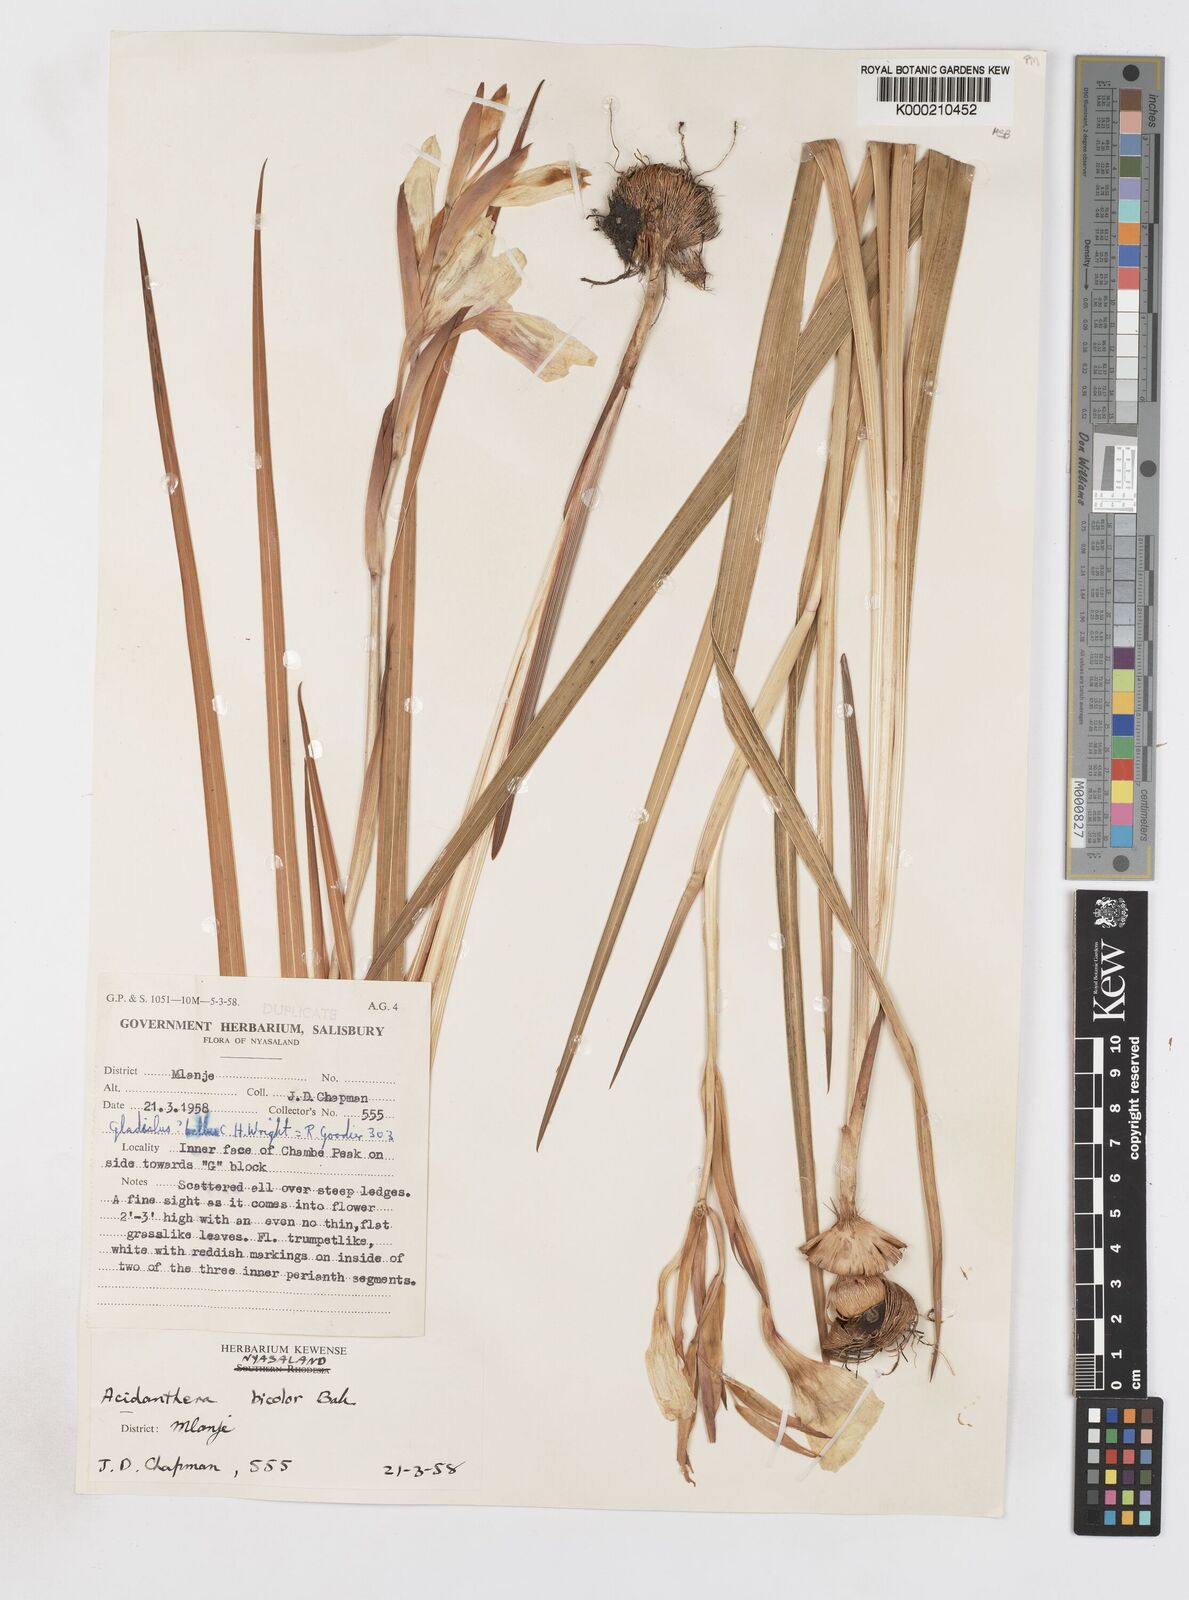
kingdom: Plantae
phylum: Tracheophyta
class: Liliopsida
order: Asparagales
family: Iridaceae
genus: Gladiolus
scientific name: Gladiolus bellus
